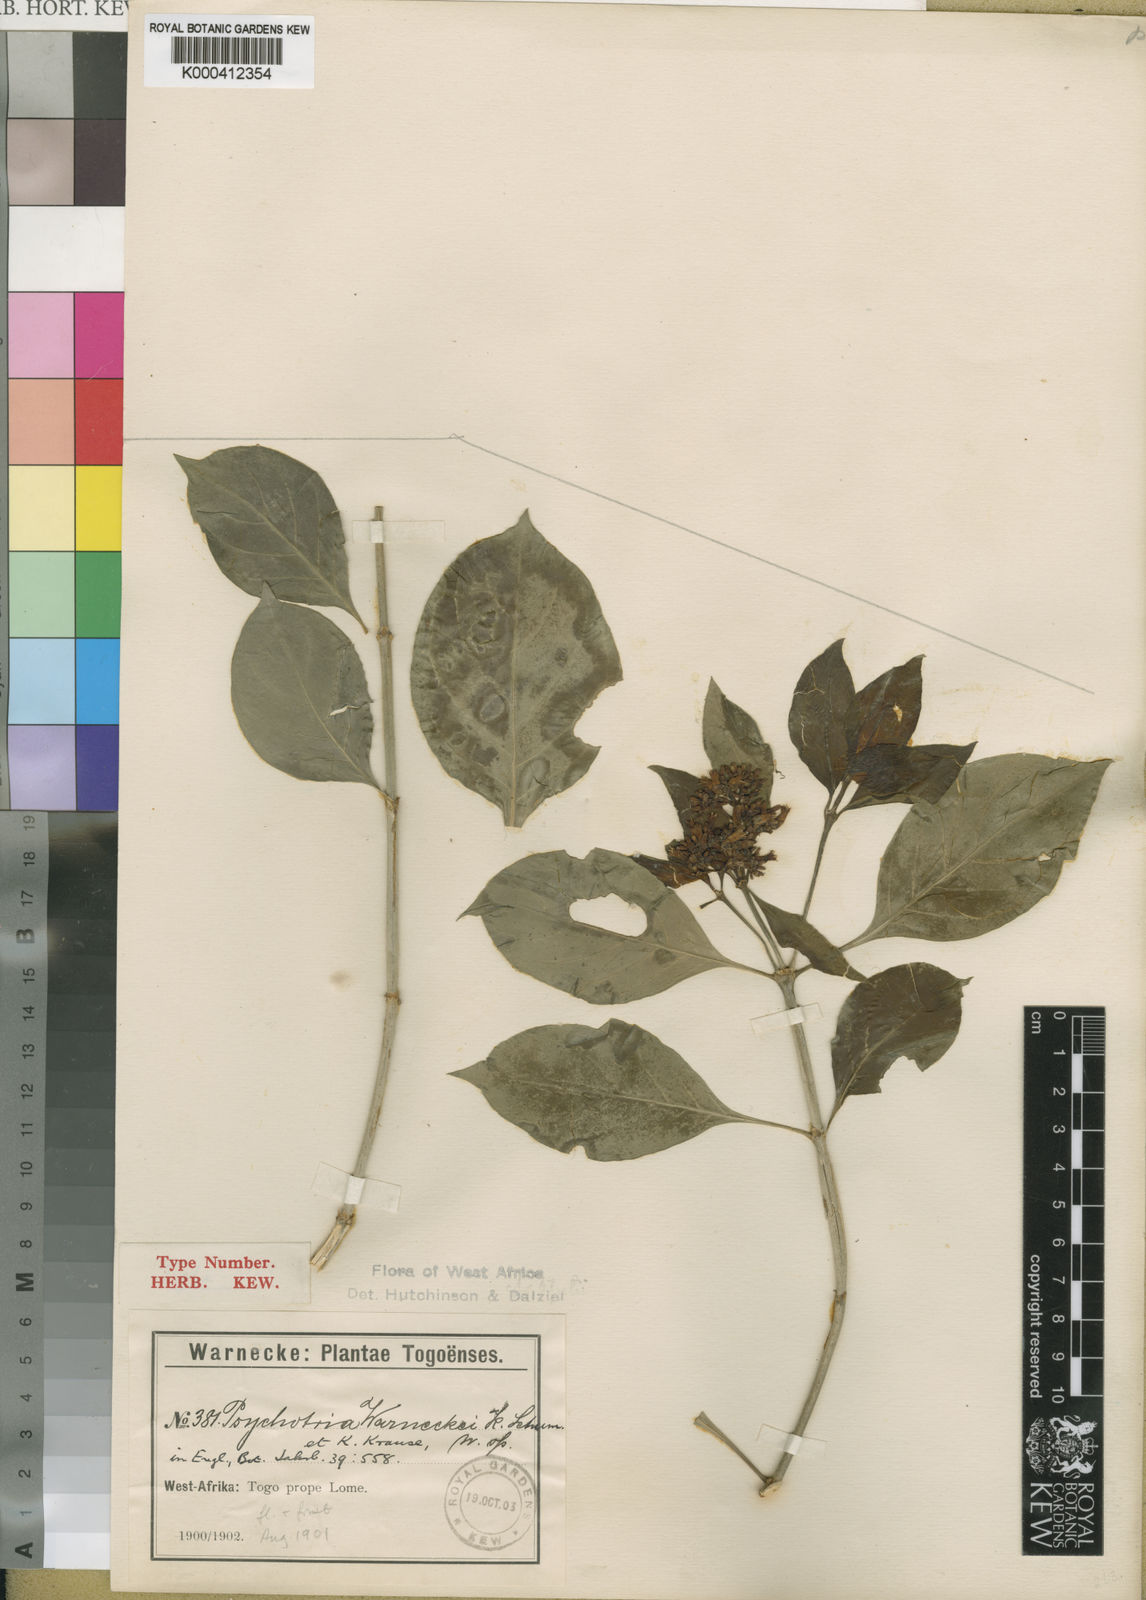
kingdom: Plantae
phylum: Tracheophyta
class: Magnoliopsida
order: Gentianales
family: Rubiaceae
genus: Chassalia
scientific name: Chassalia kolly
